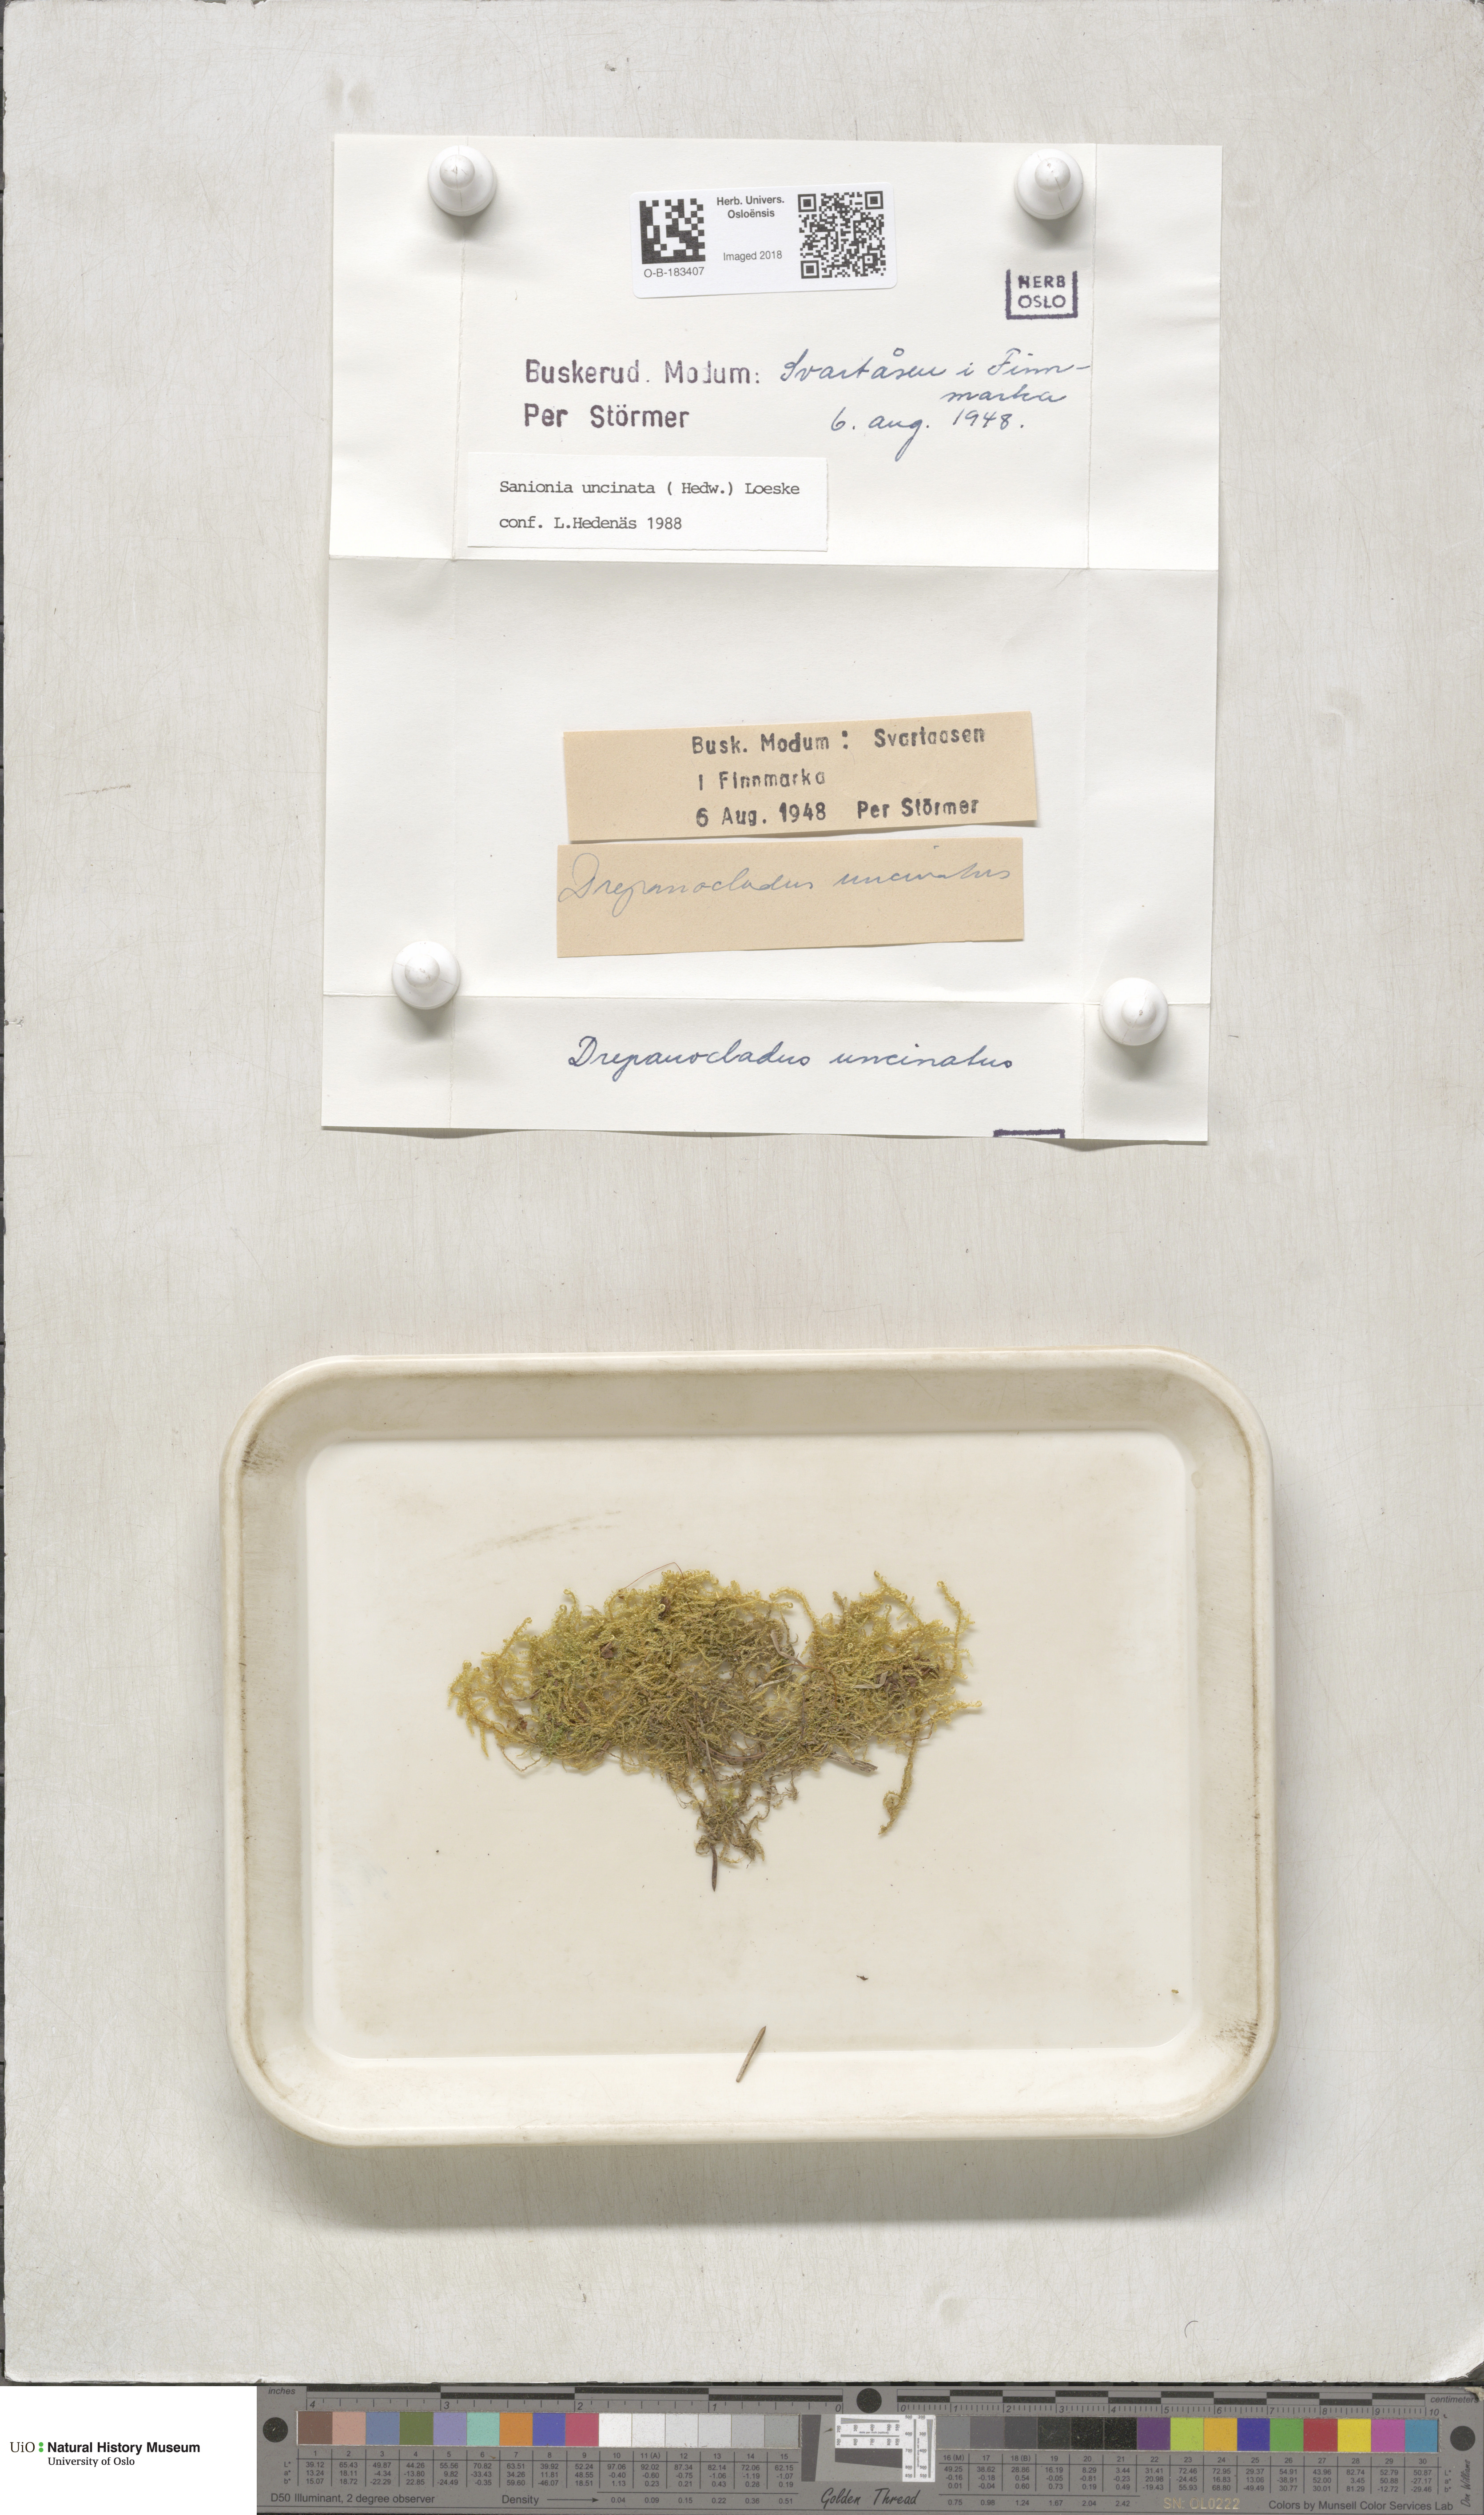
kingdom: Plantae
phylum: Bryophyta
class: Bryopsida
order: Hypnales
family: Scorpidiaceae
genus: Sanionia
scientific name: Sanionia uncinata
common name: Sickle moss
